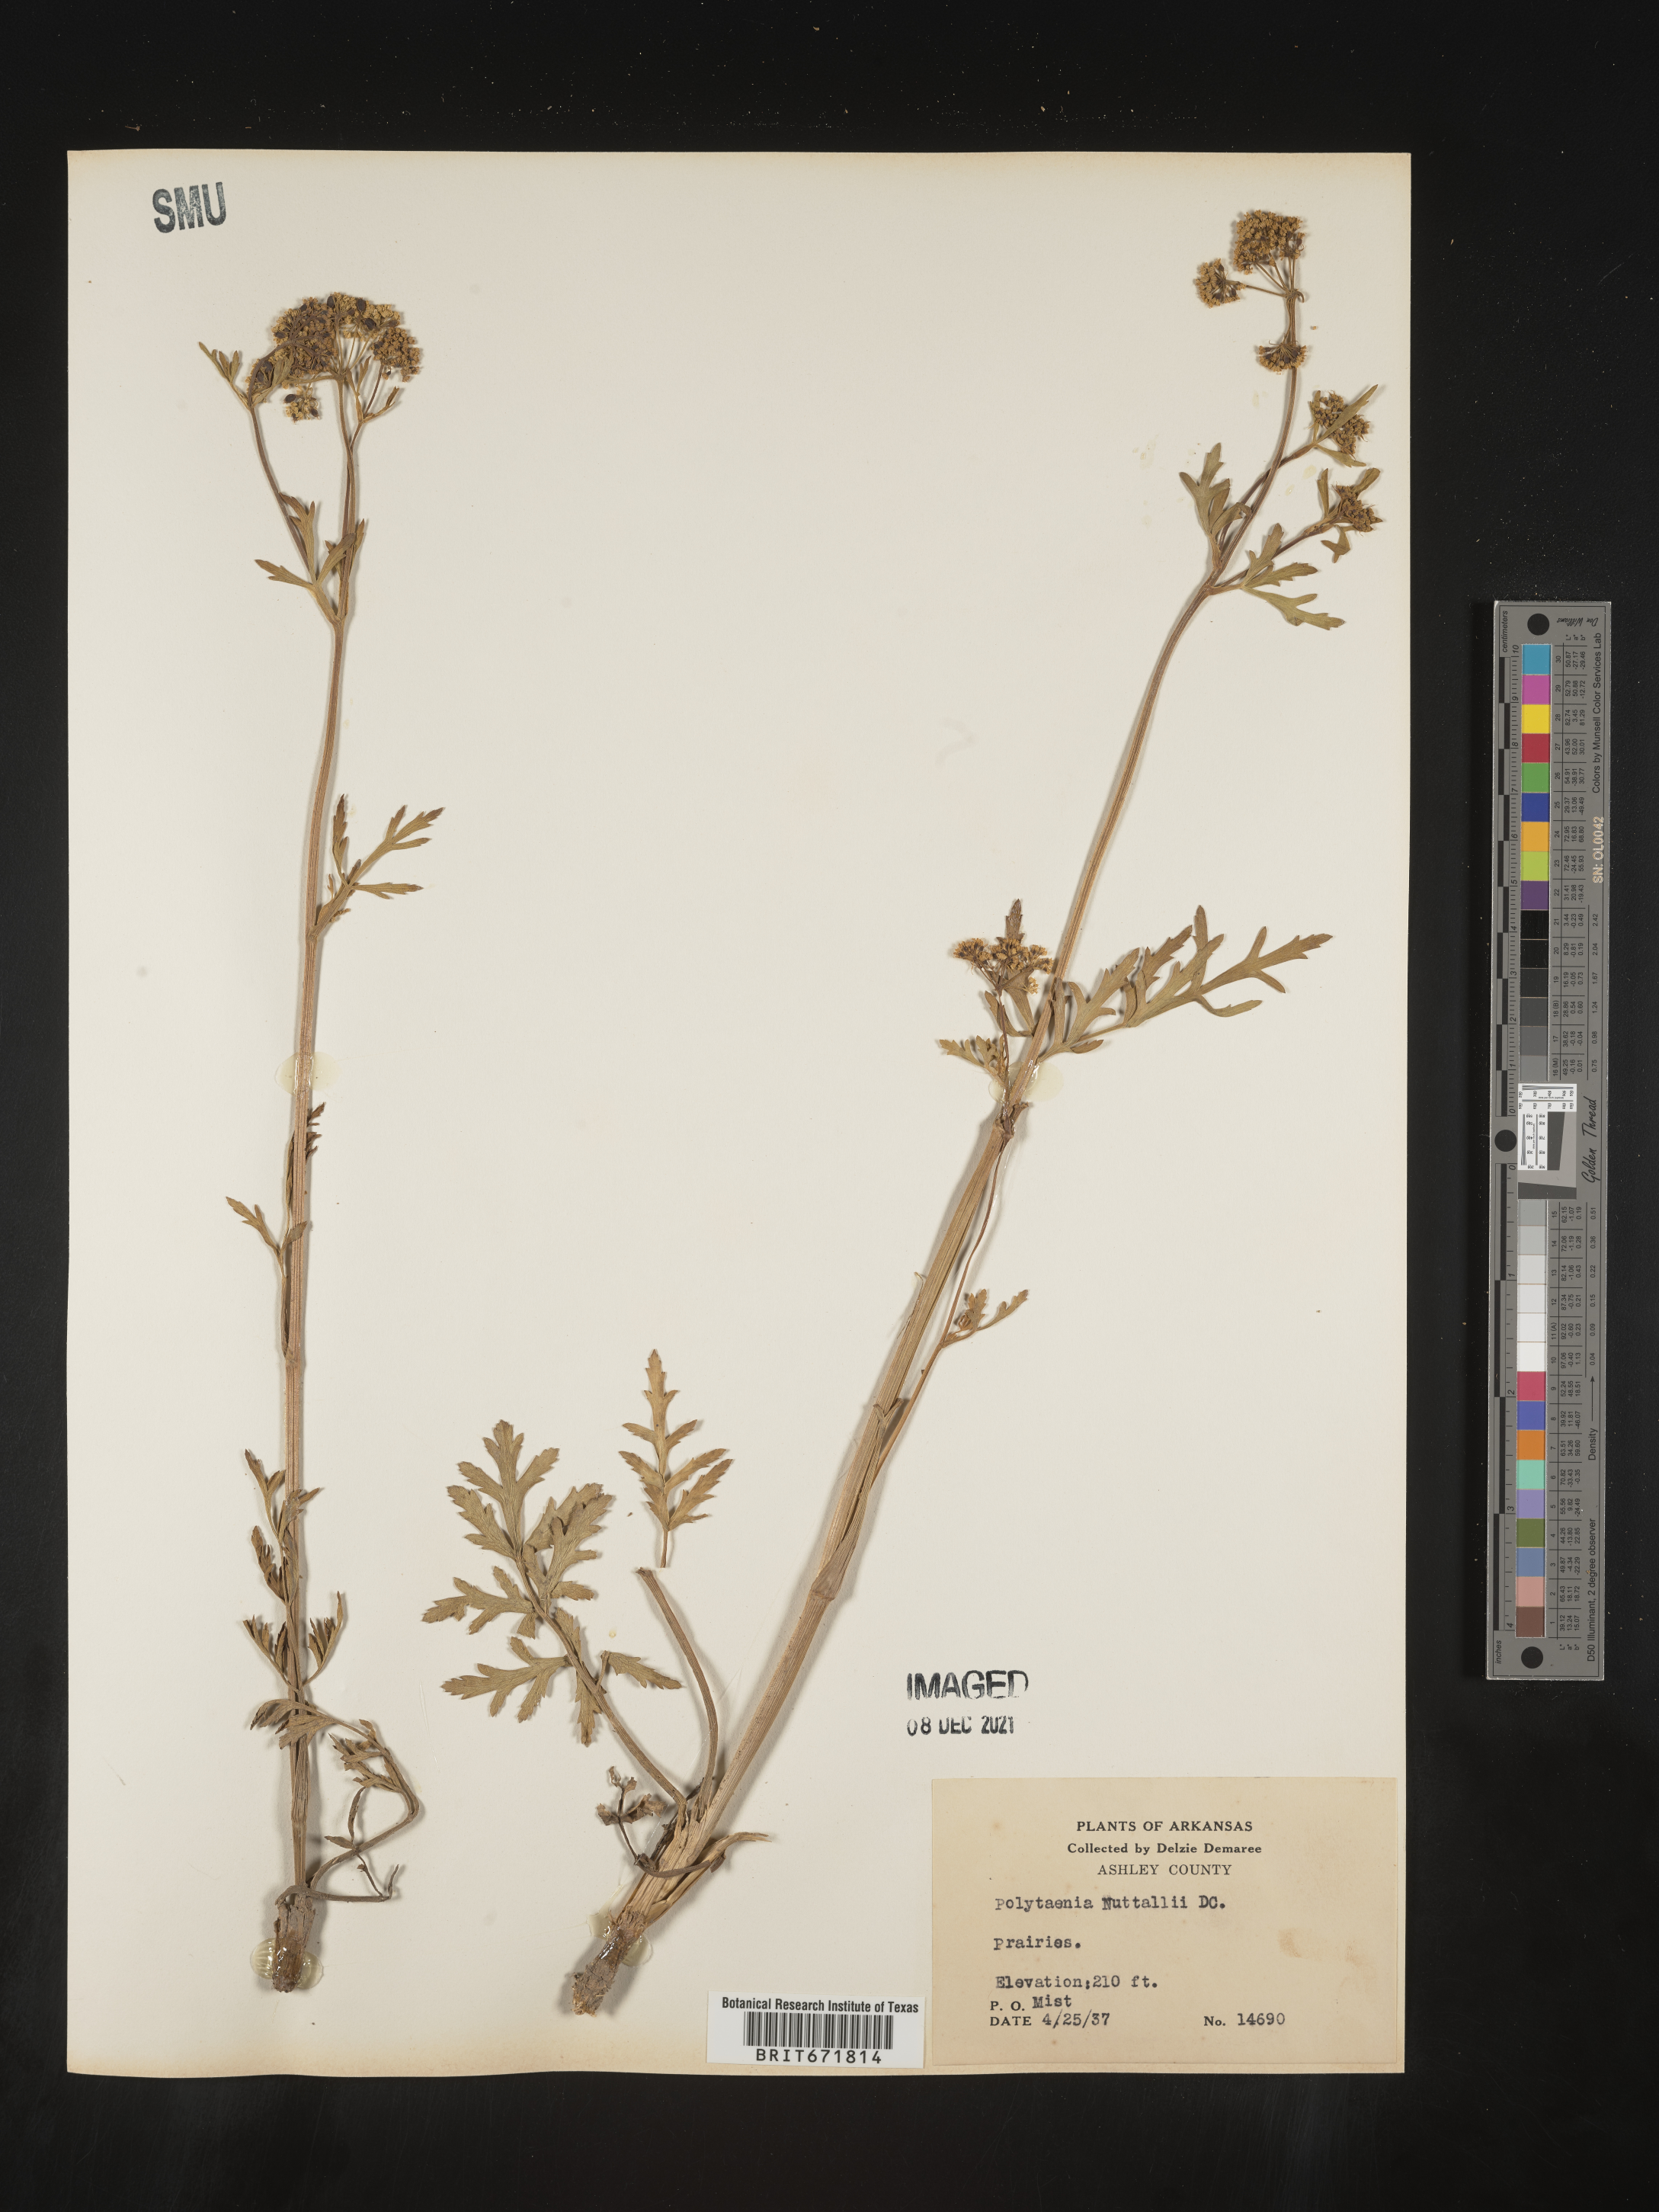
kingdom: Plantae
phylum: Tracheophyta
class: Magnoliopsida
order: Apiales
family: Apiaceae
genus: Polytaenia
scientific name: Polytaenia nuttallii
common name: Prairie-parsley
